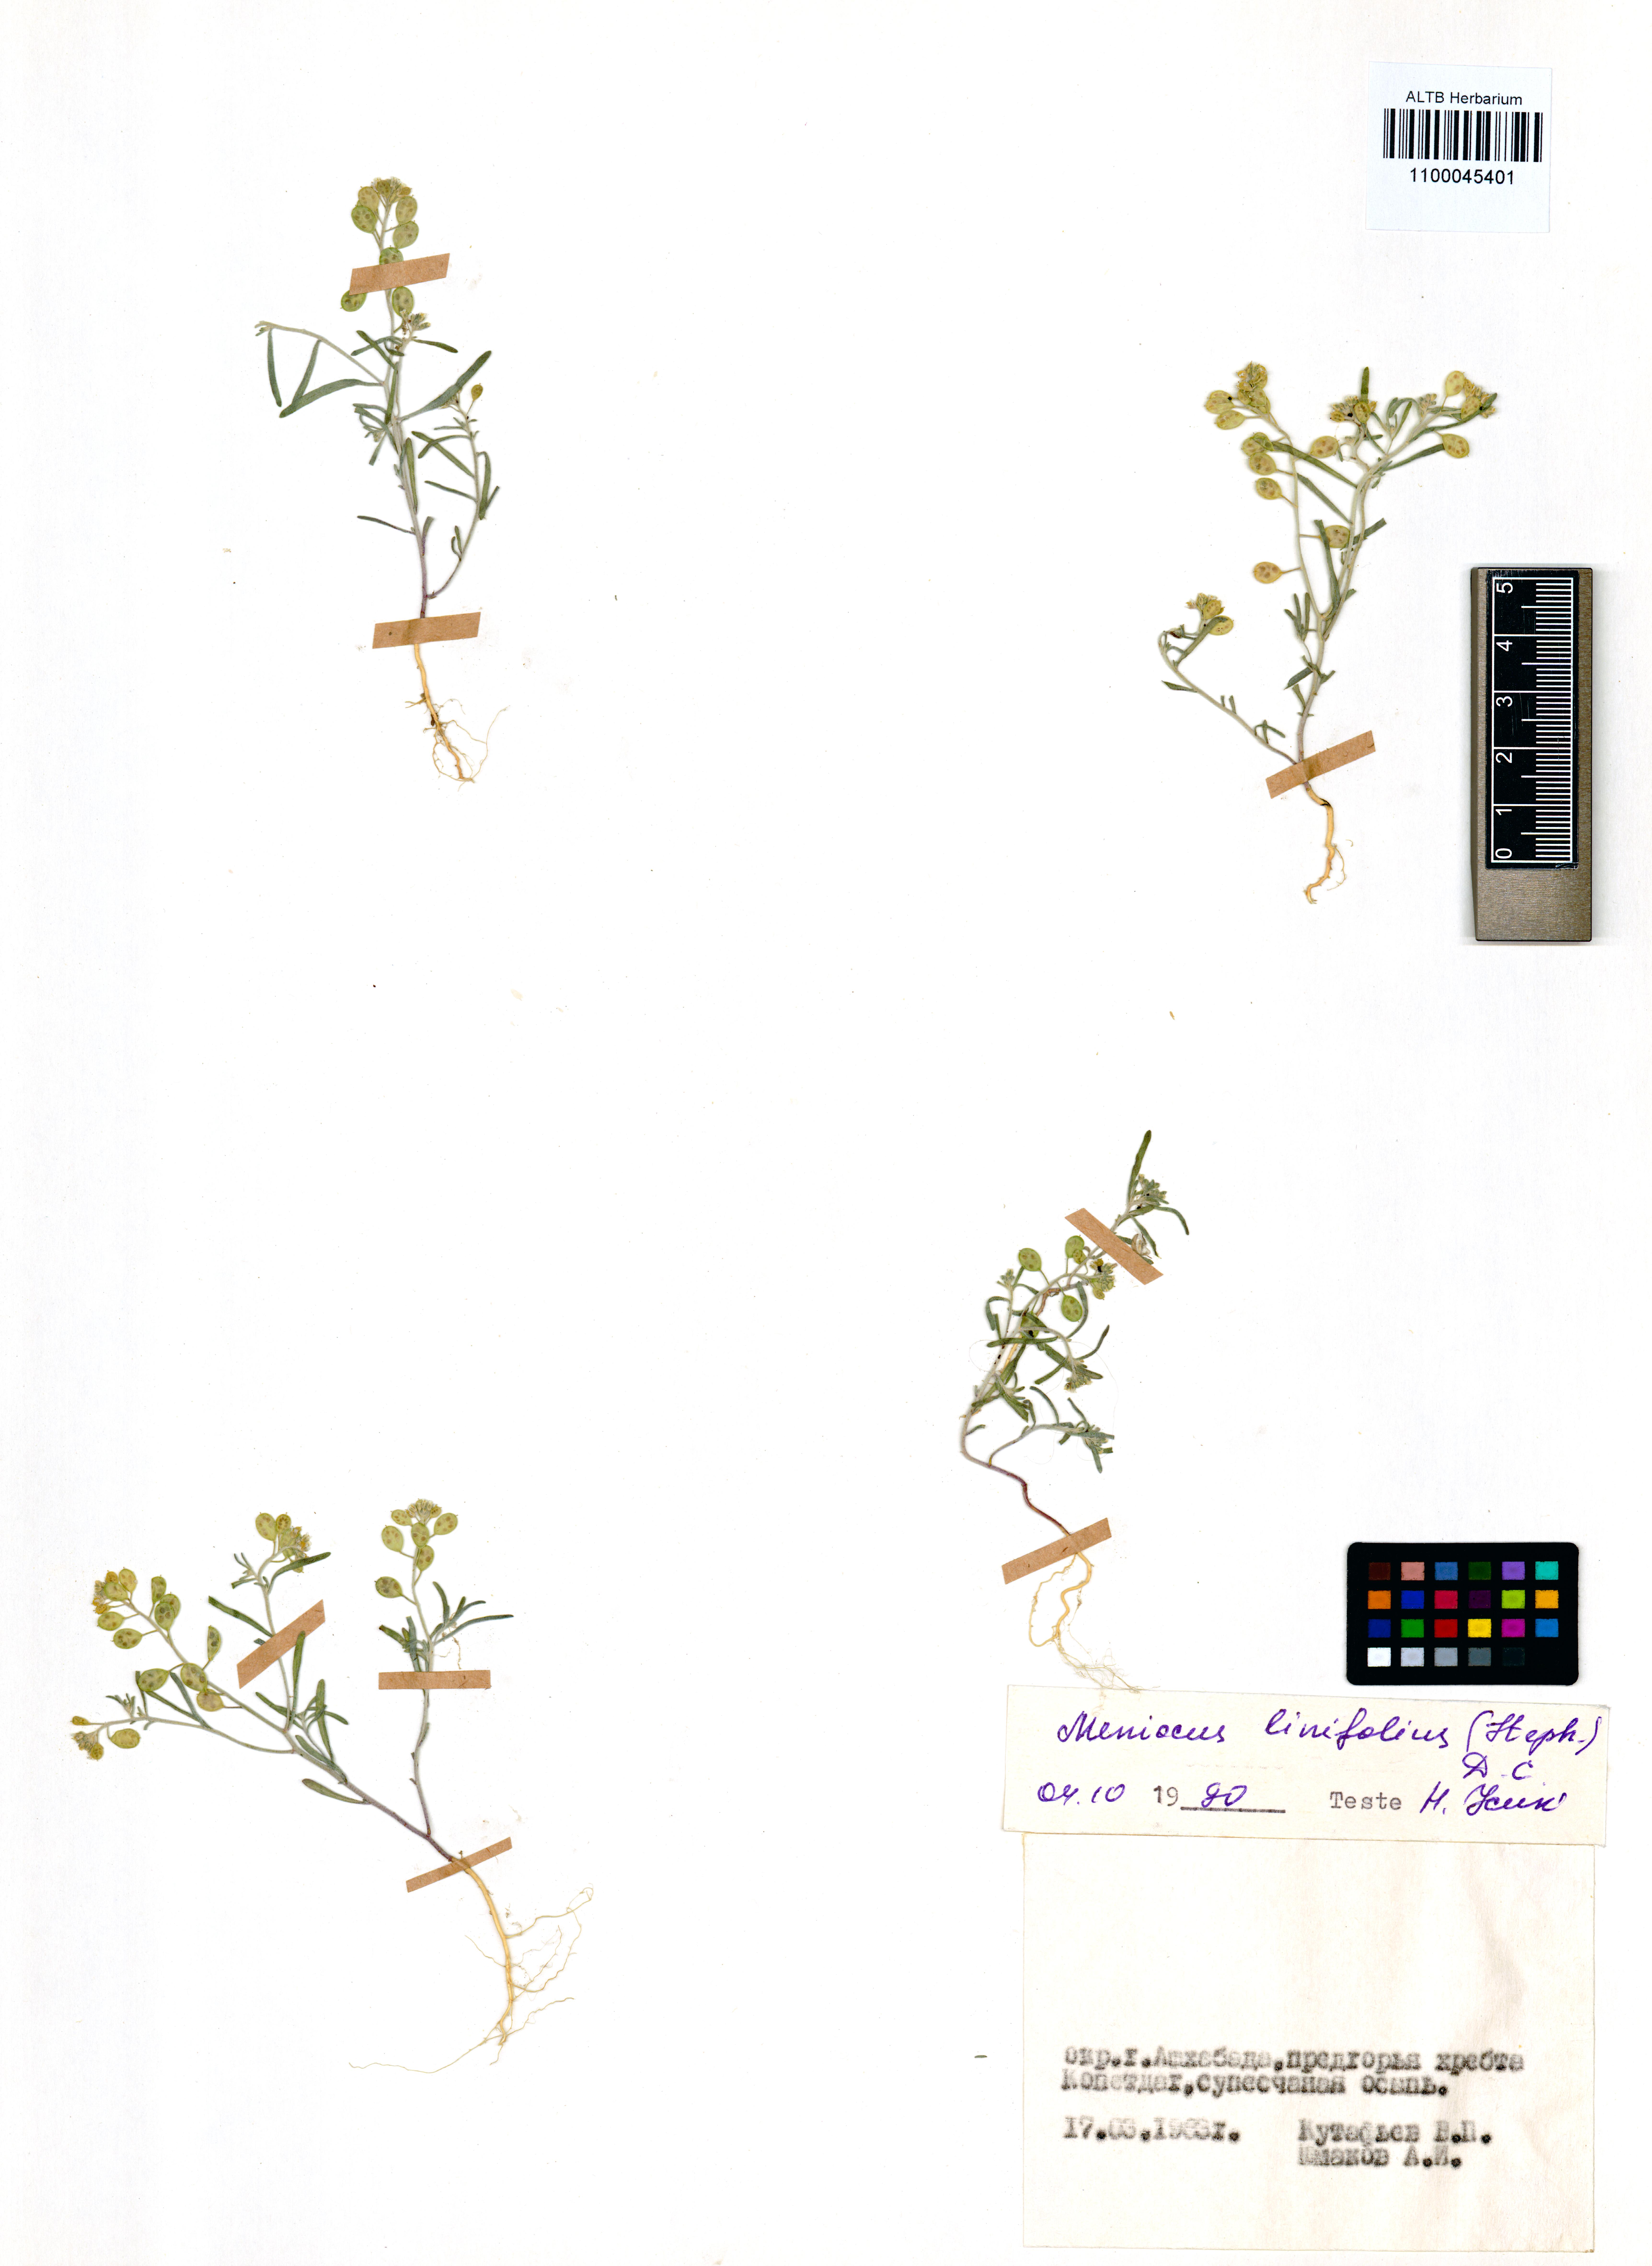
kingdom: Plantae
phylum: Tracheophyta
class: Magnoliopsida
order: Brassicales
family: Brassicaceae
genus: Meniocus
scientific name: Meniocus linifolius
